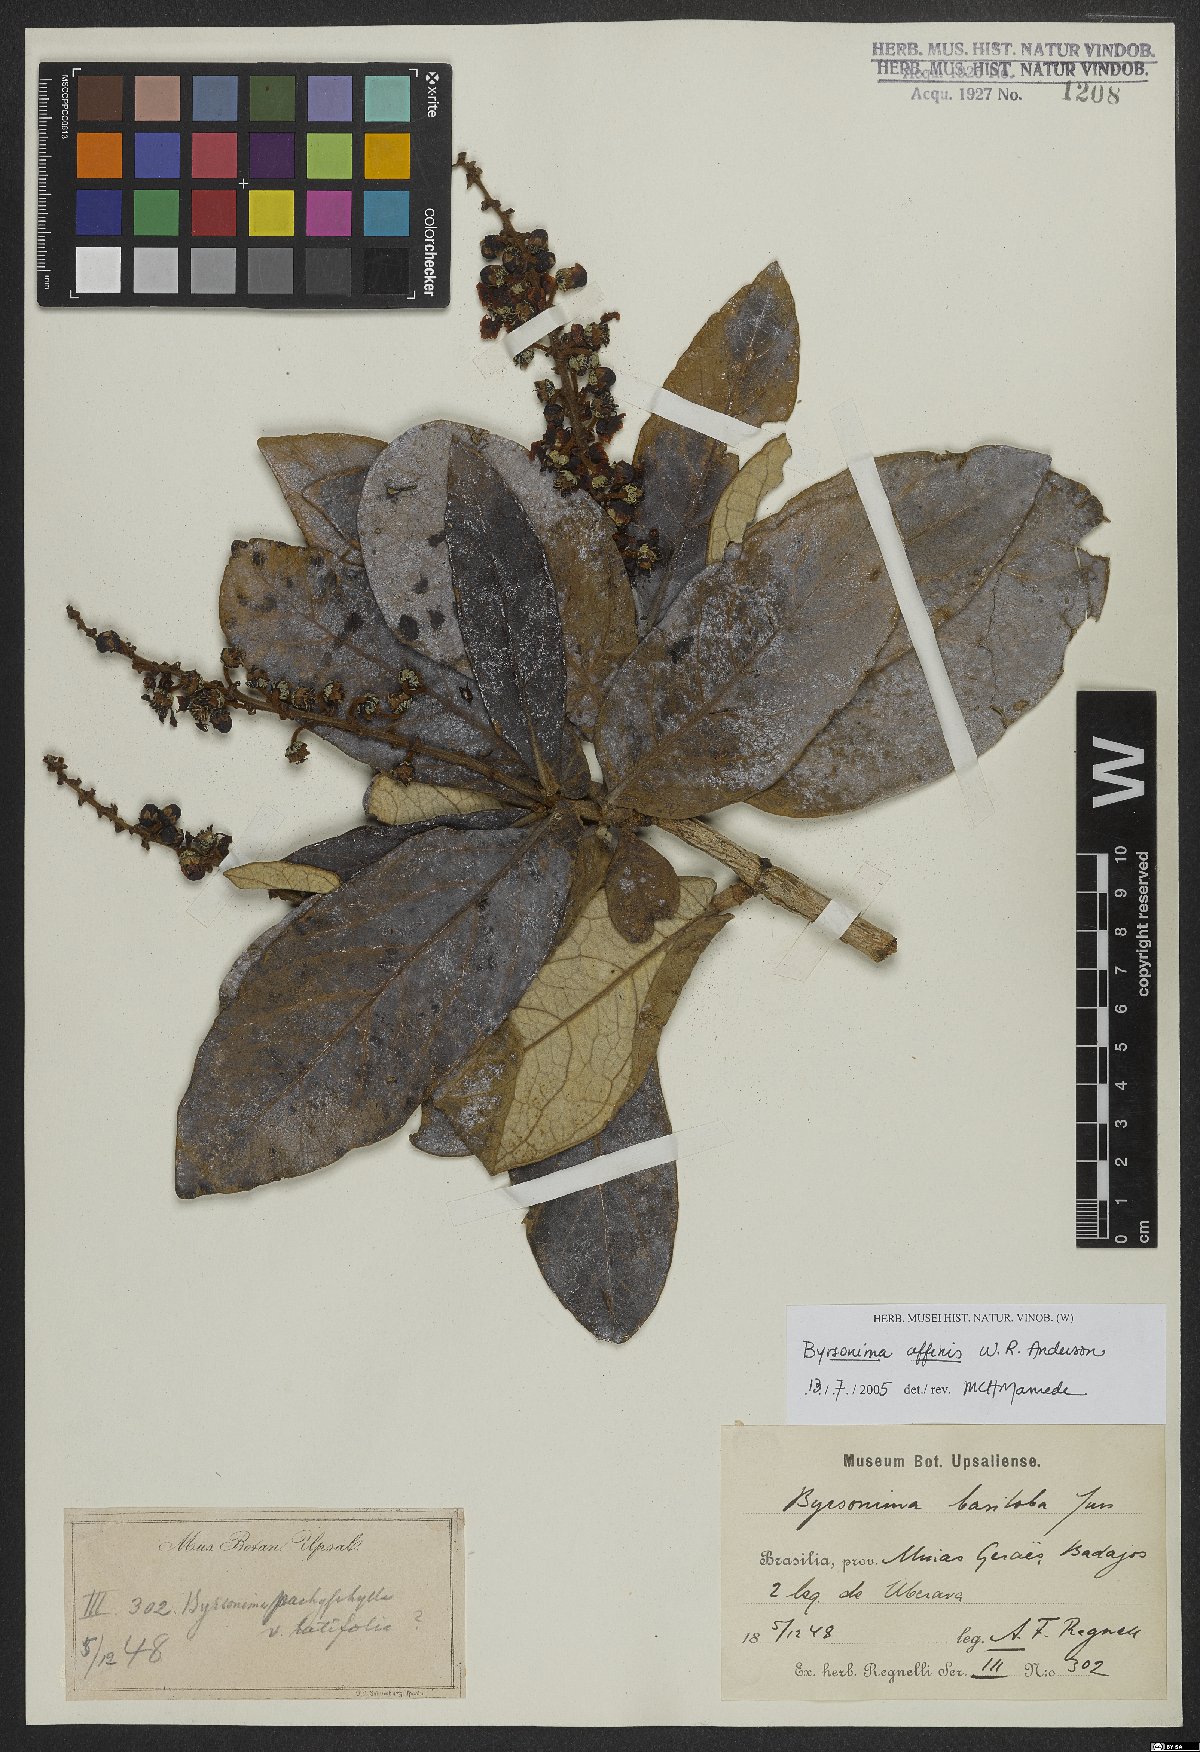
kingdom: Plantae
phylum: Tracheophyta
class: Magnoliopsida
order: Malpighiales
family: Malpighiaceae
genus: Byrsonima
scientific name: Byrsonima affinis
